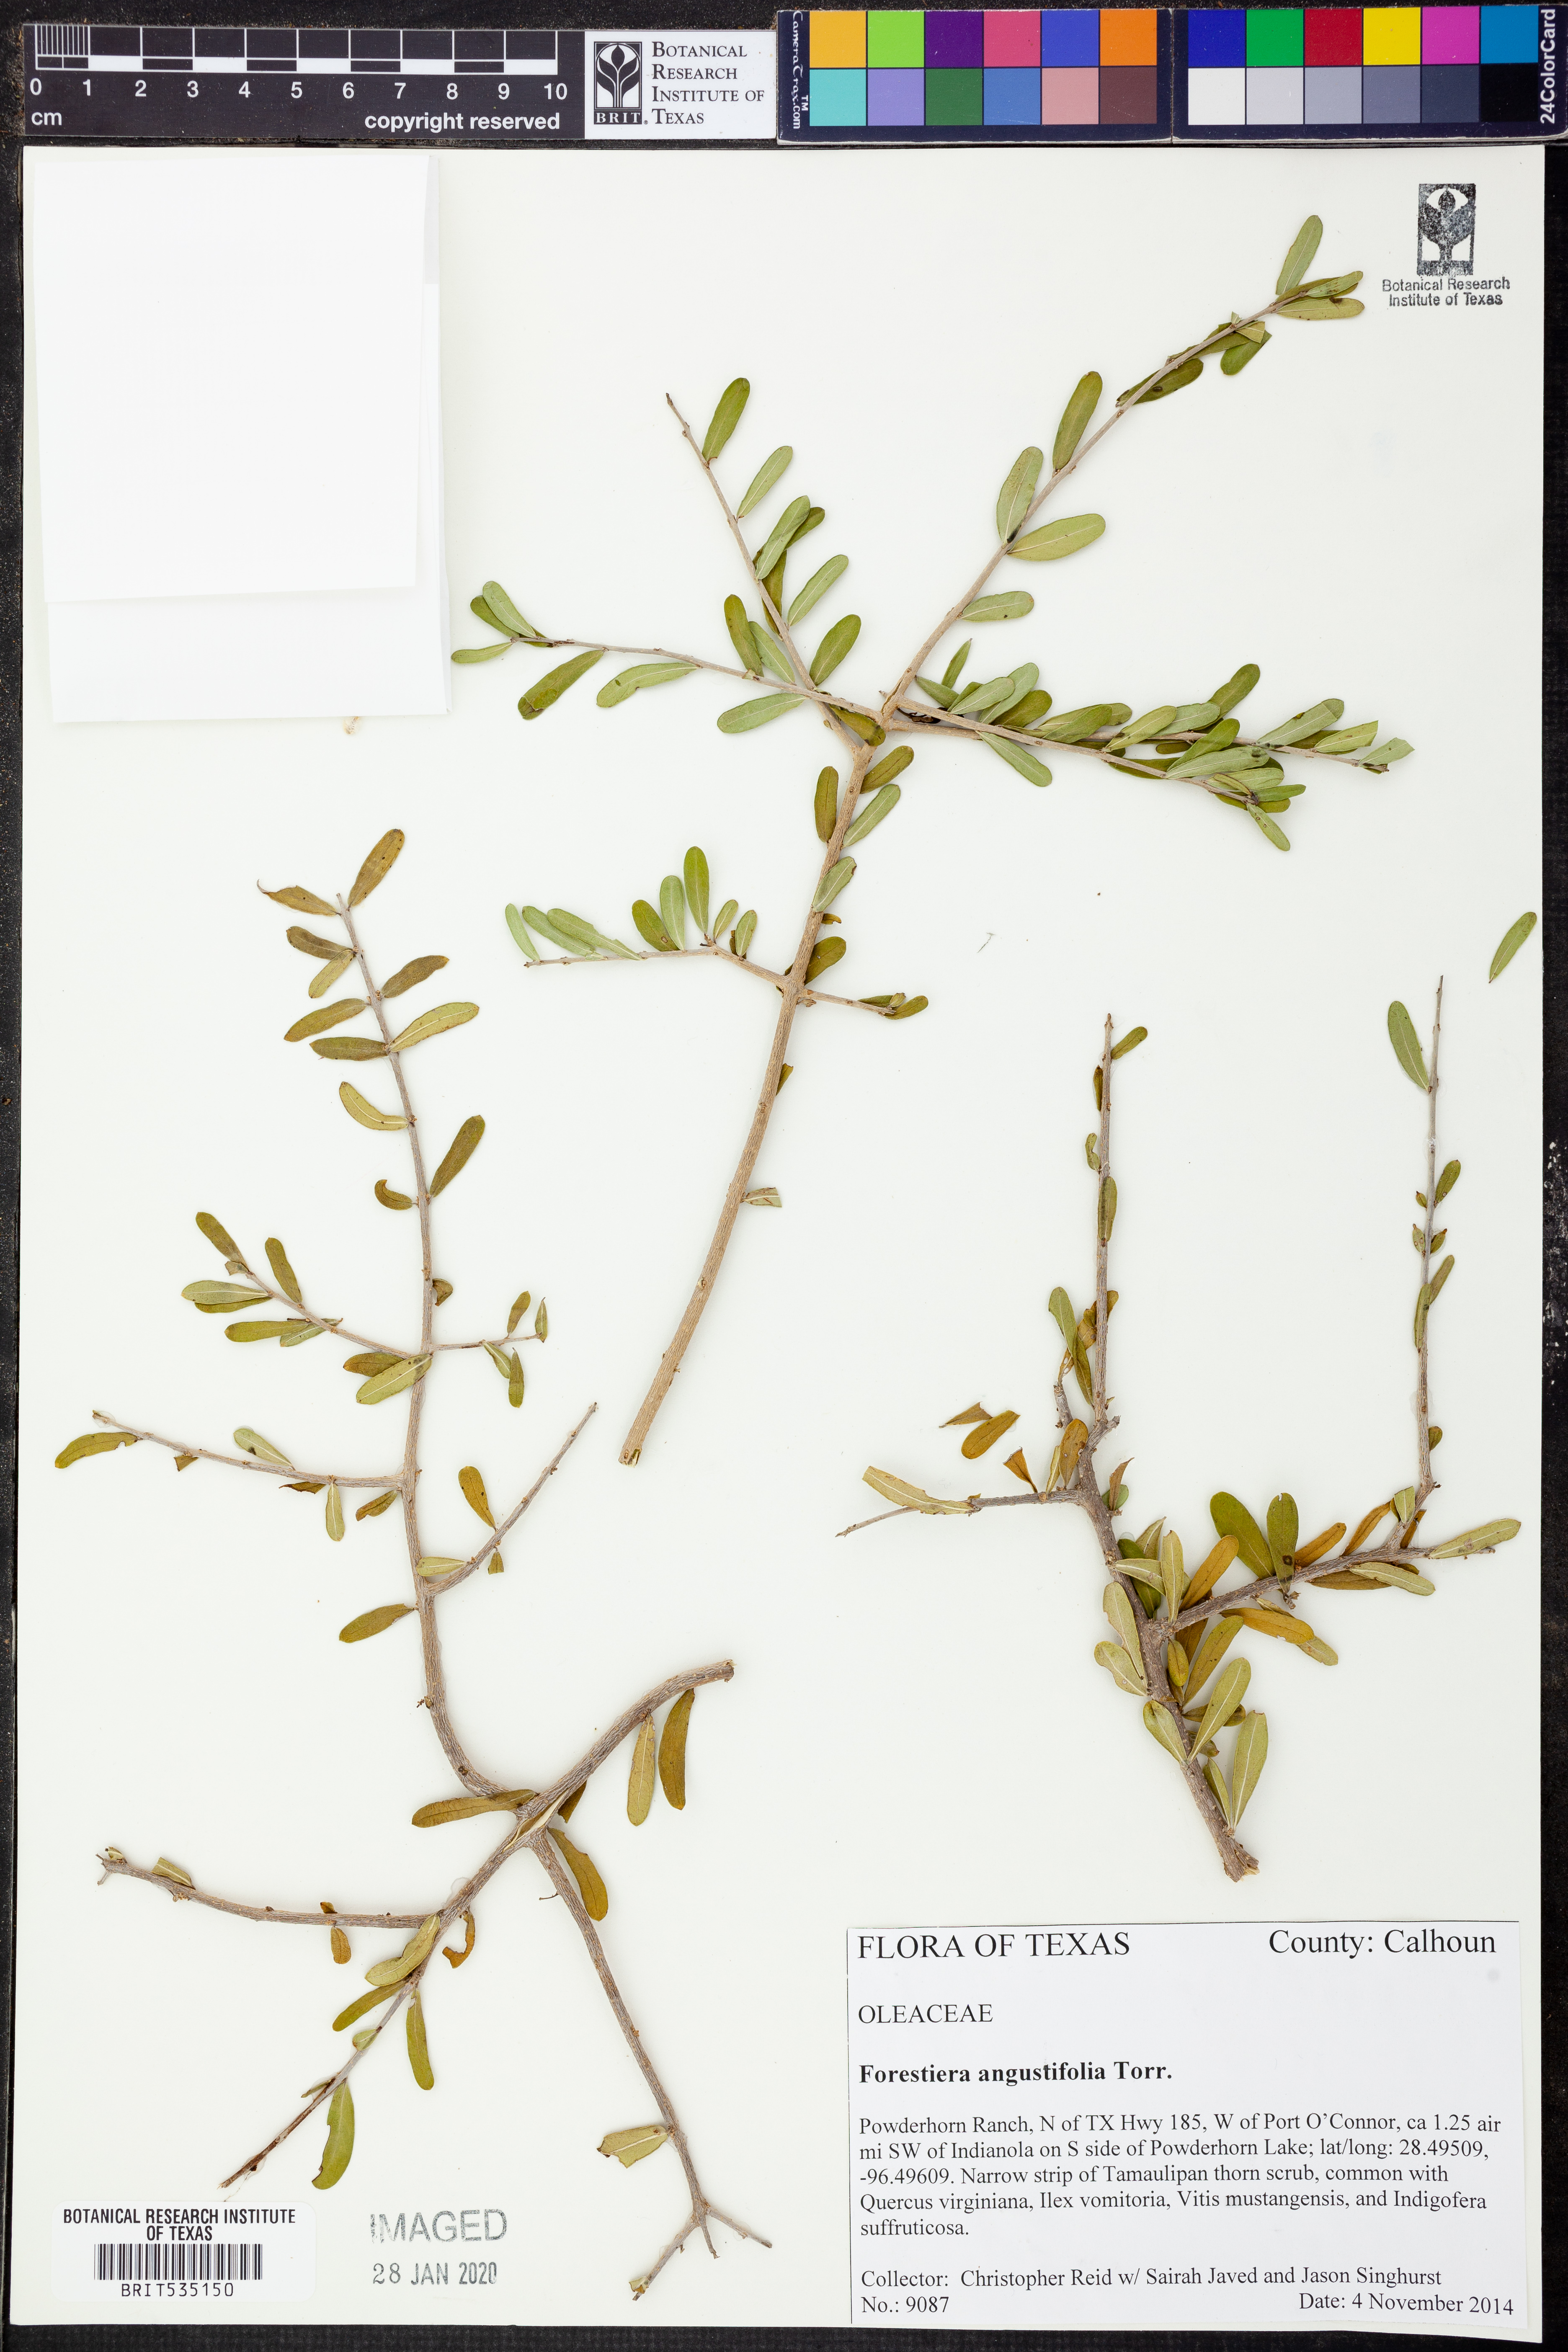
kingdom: Plantae
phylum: Tracheophyta
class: Magnoliopsida
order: Lamiales
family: Oleaceae
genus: Forestiera
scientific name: Forestiera angustifolia
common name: Elbowbush
